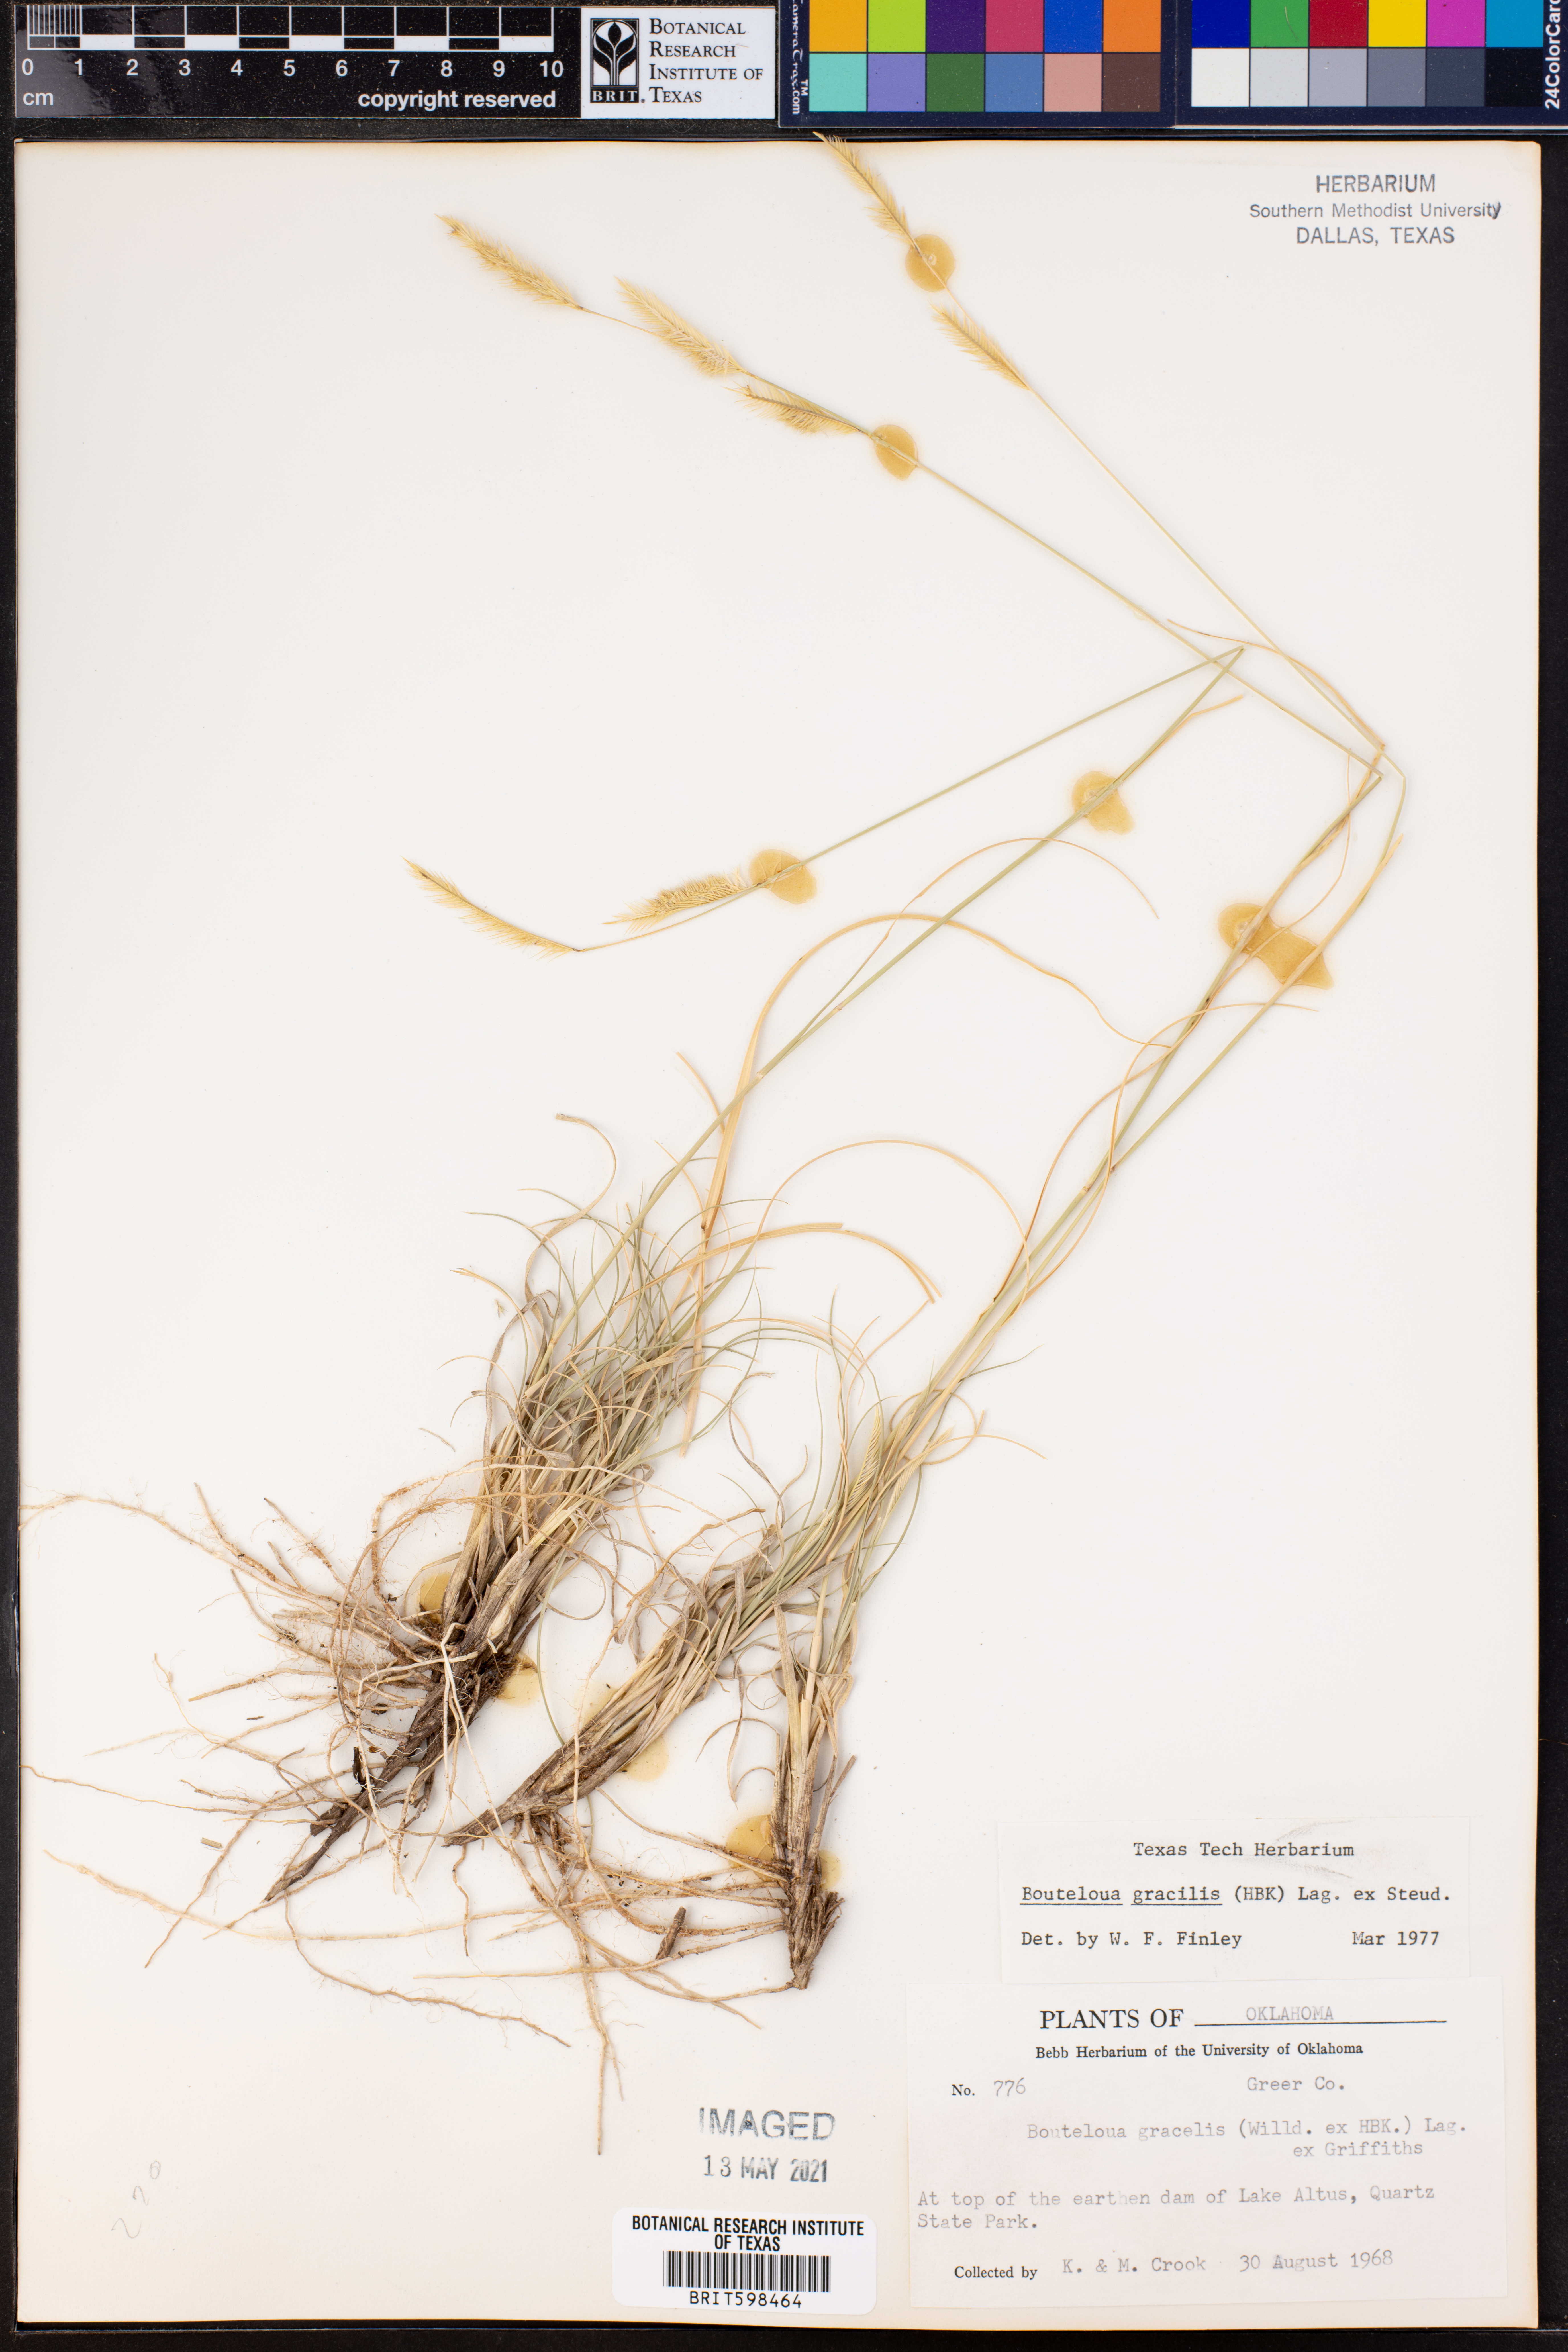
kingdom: Plantae
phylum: Tracheophyta
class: Liliopsida
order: Poales
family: Poaceae
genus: Bouteloua
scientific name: Bouteloua gracilis
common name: Blue grama
